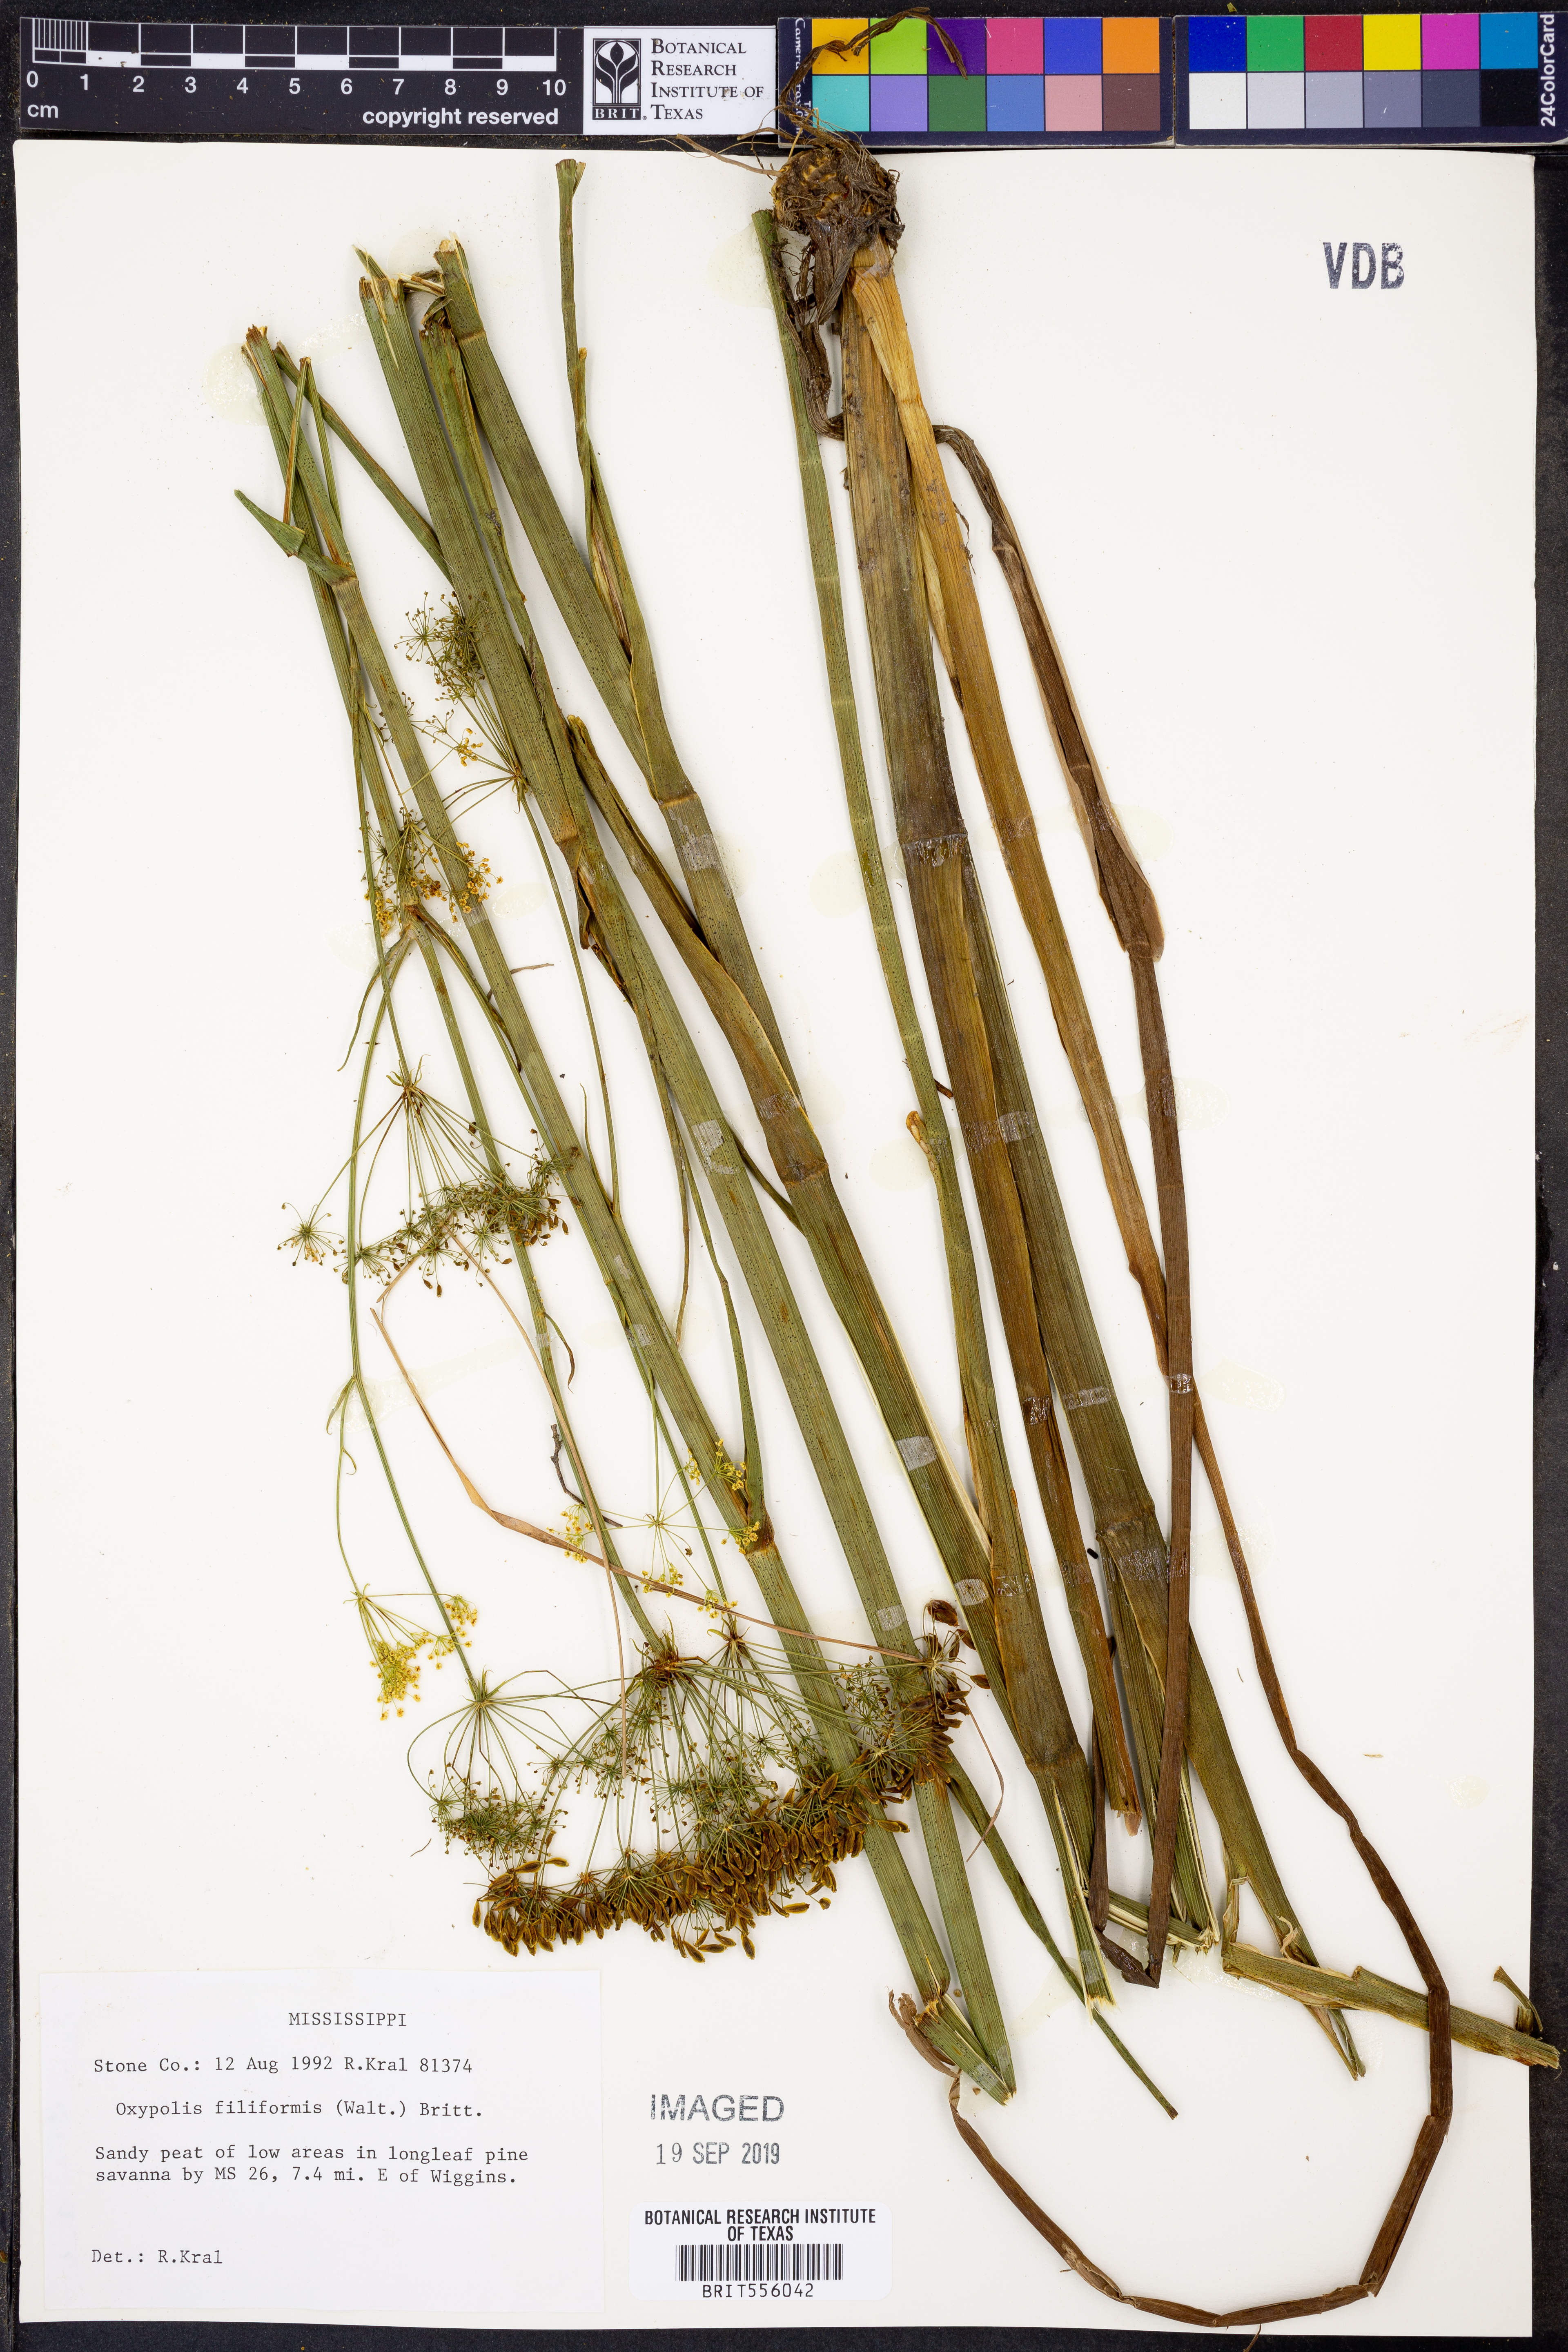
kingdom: Plantae
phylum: Tracheophyta
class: Magnoliopsida
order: Apiales
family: Apiaceae
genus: Tiedemannia
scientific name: Tiedemannia filiformis
